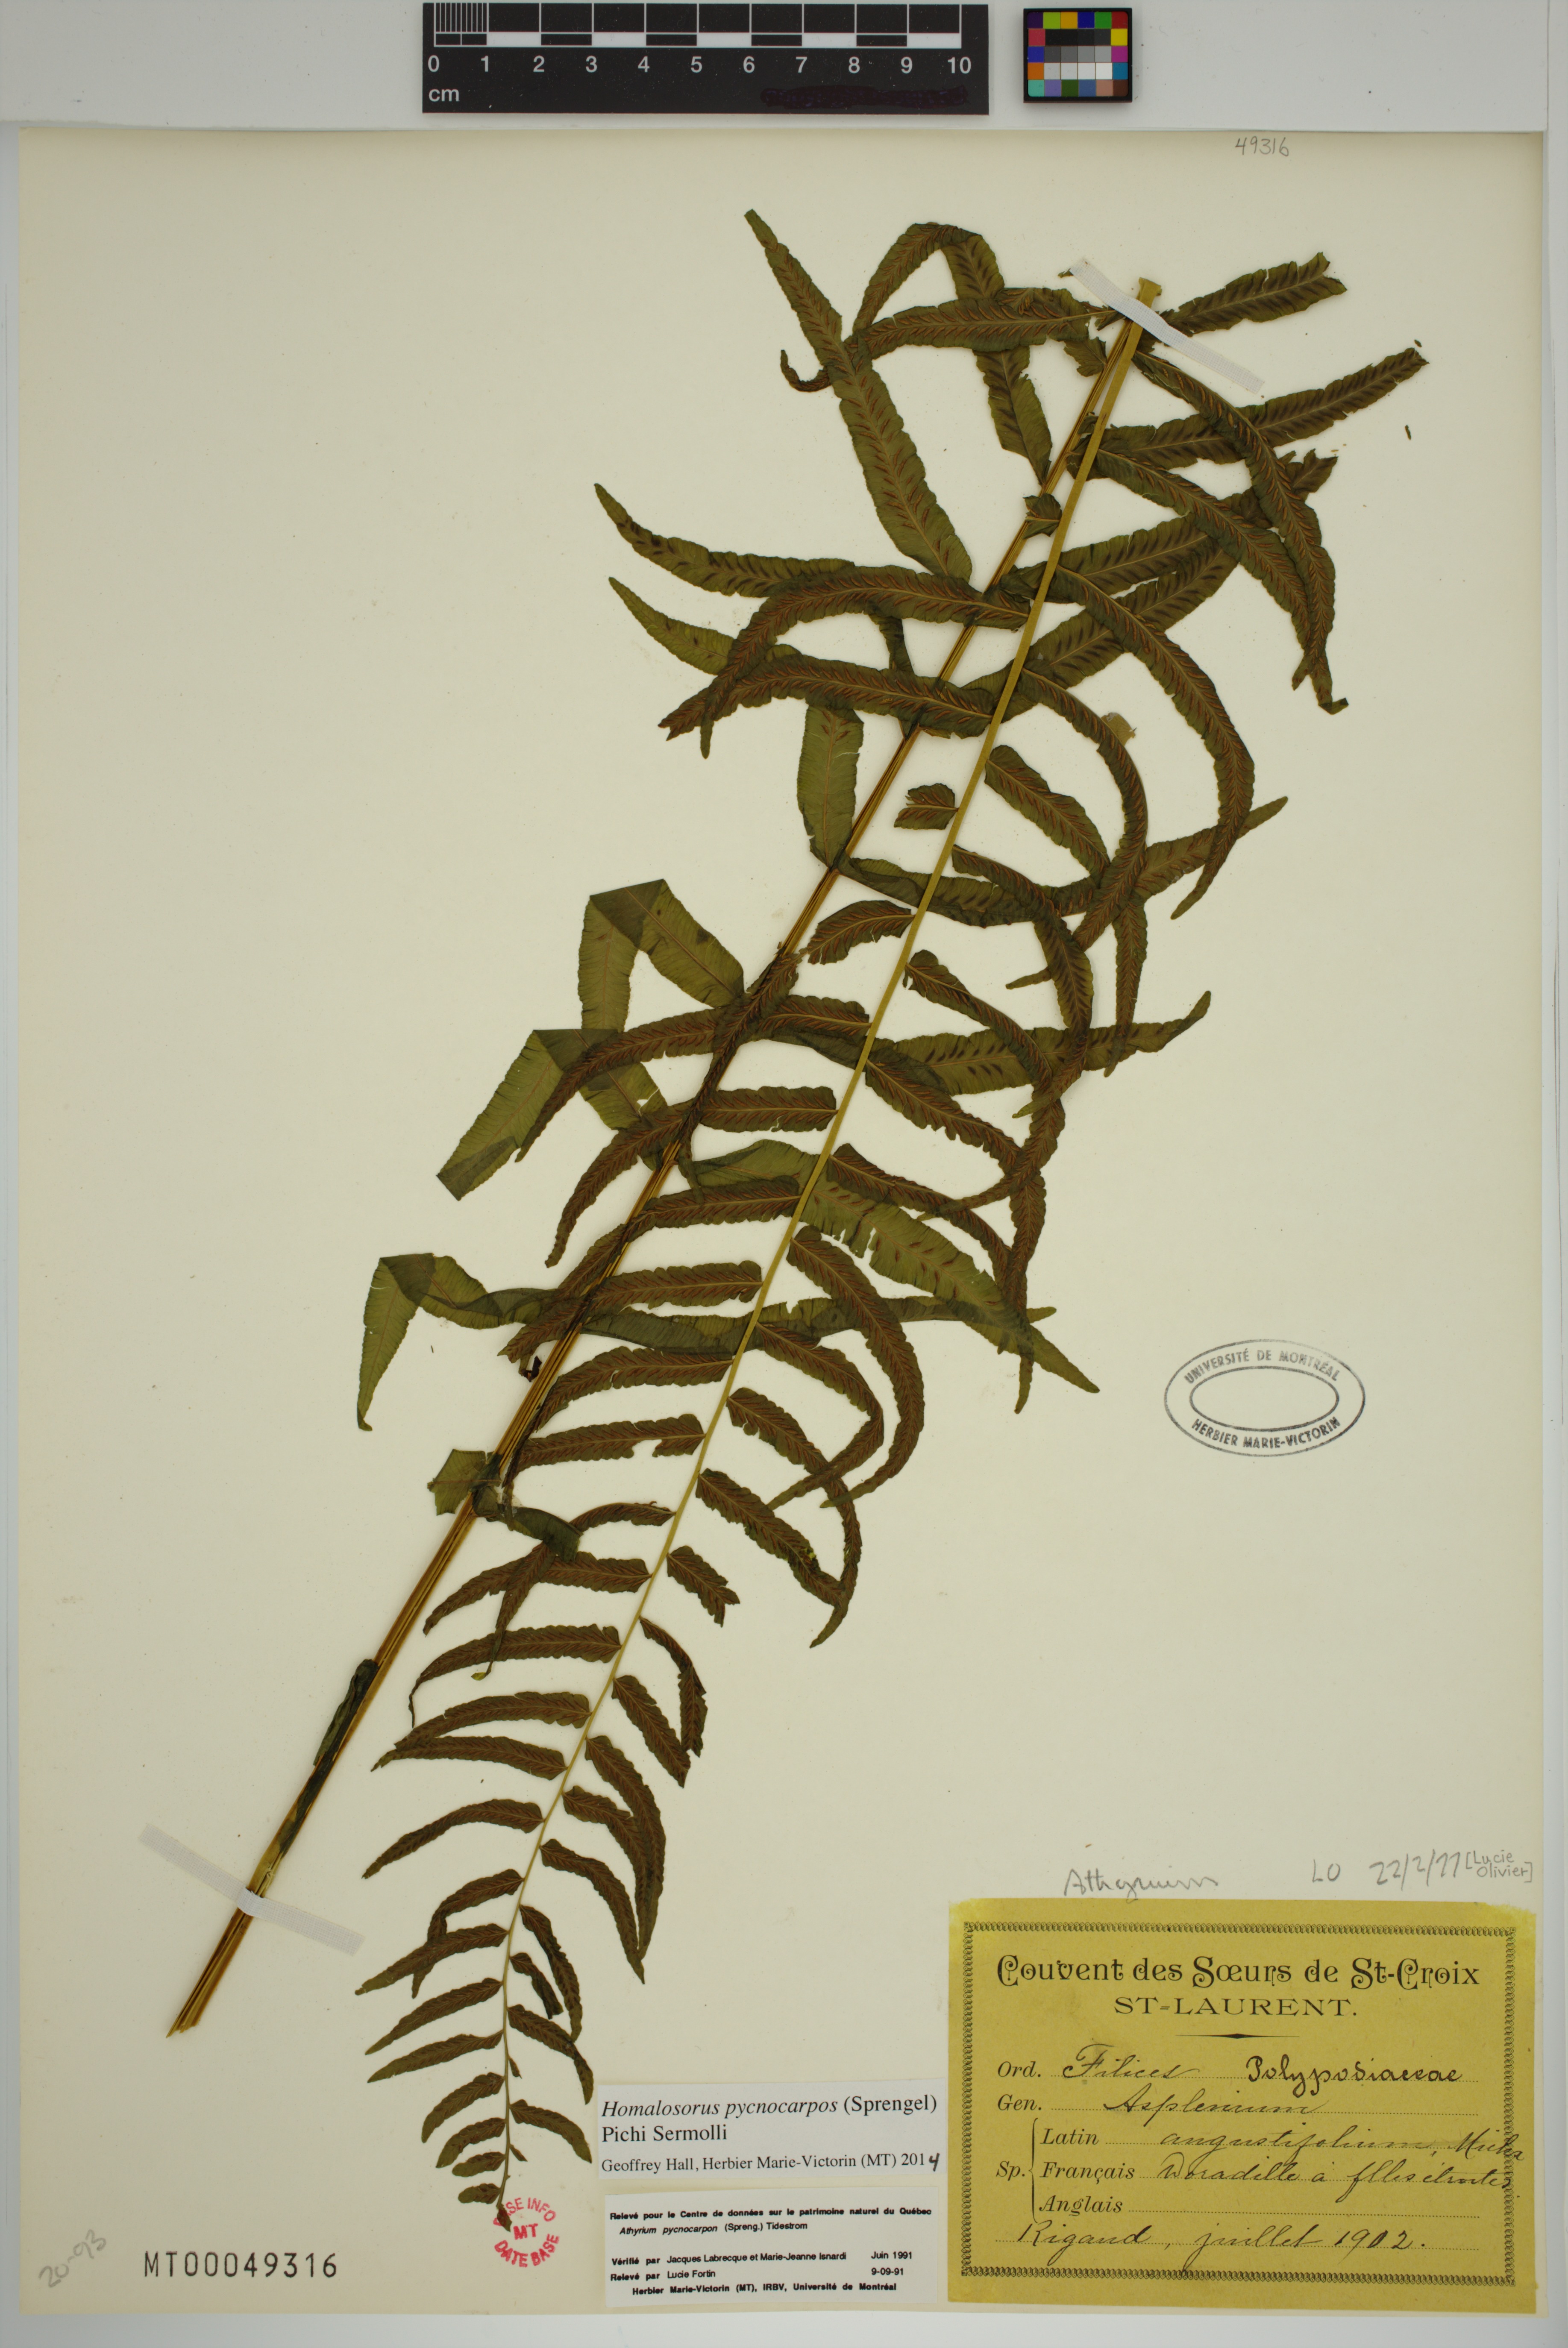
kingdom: Plantae
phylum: Tracheophyta
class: Polypodiopsida
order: Polypodiales
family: Diplaziopsidaceae
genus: Homalosorus
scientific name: Homalosorus pycnocarpos
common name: Glade fern
